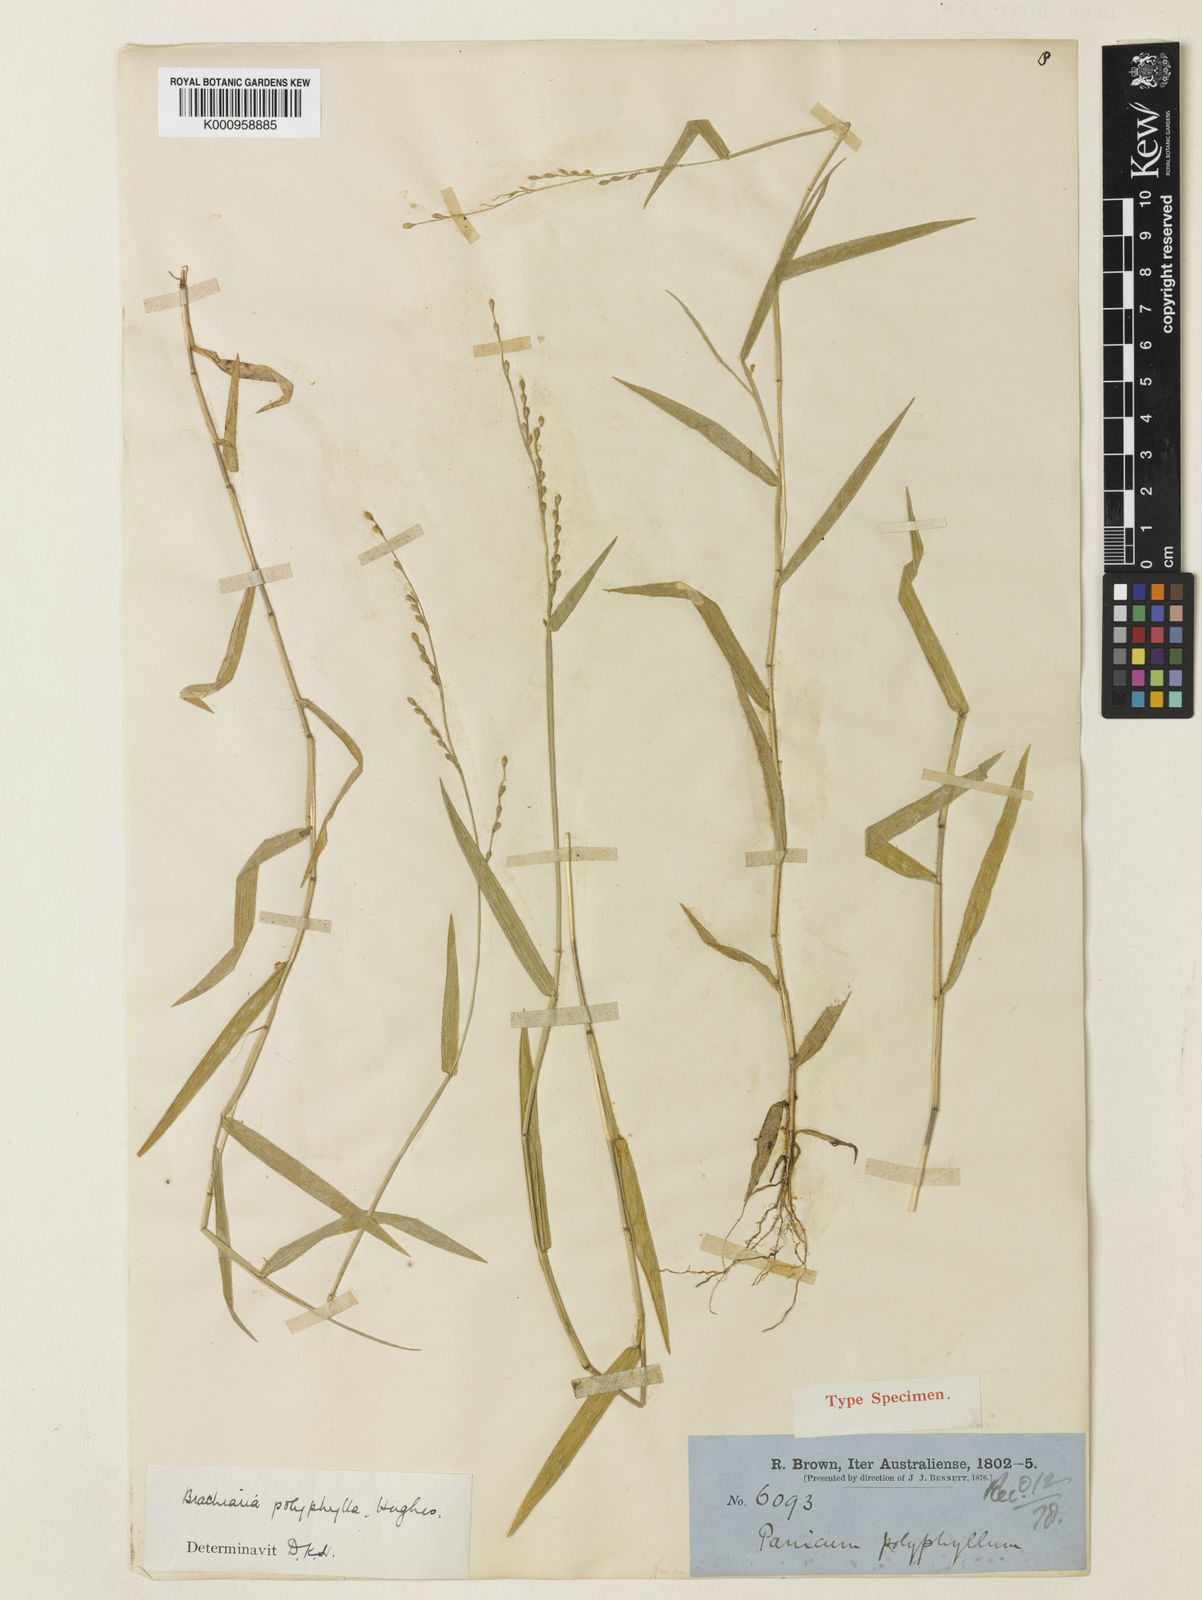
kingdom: Plantae
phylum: Tracheophyta
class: Liliopsida
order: Poales
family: Poaceae
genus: Urochloa
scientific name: Urochloa polyphylla
